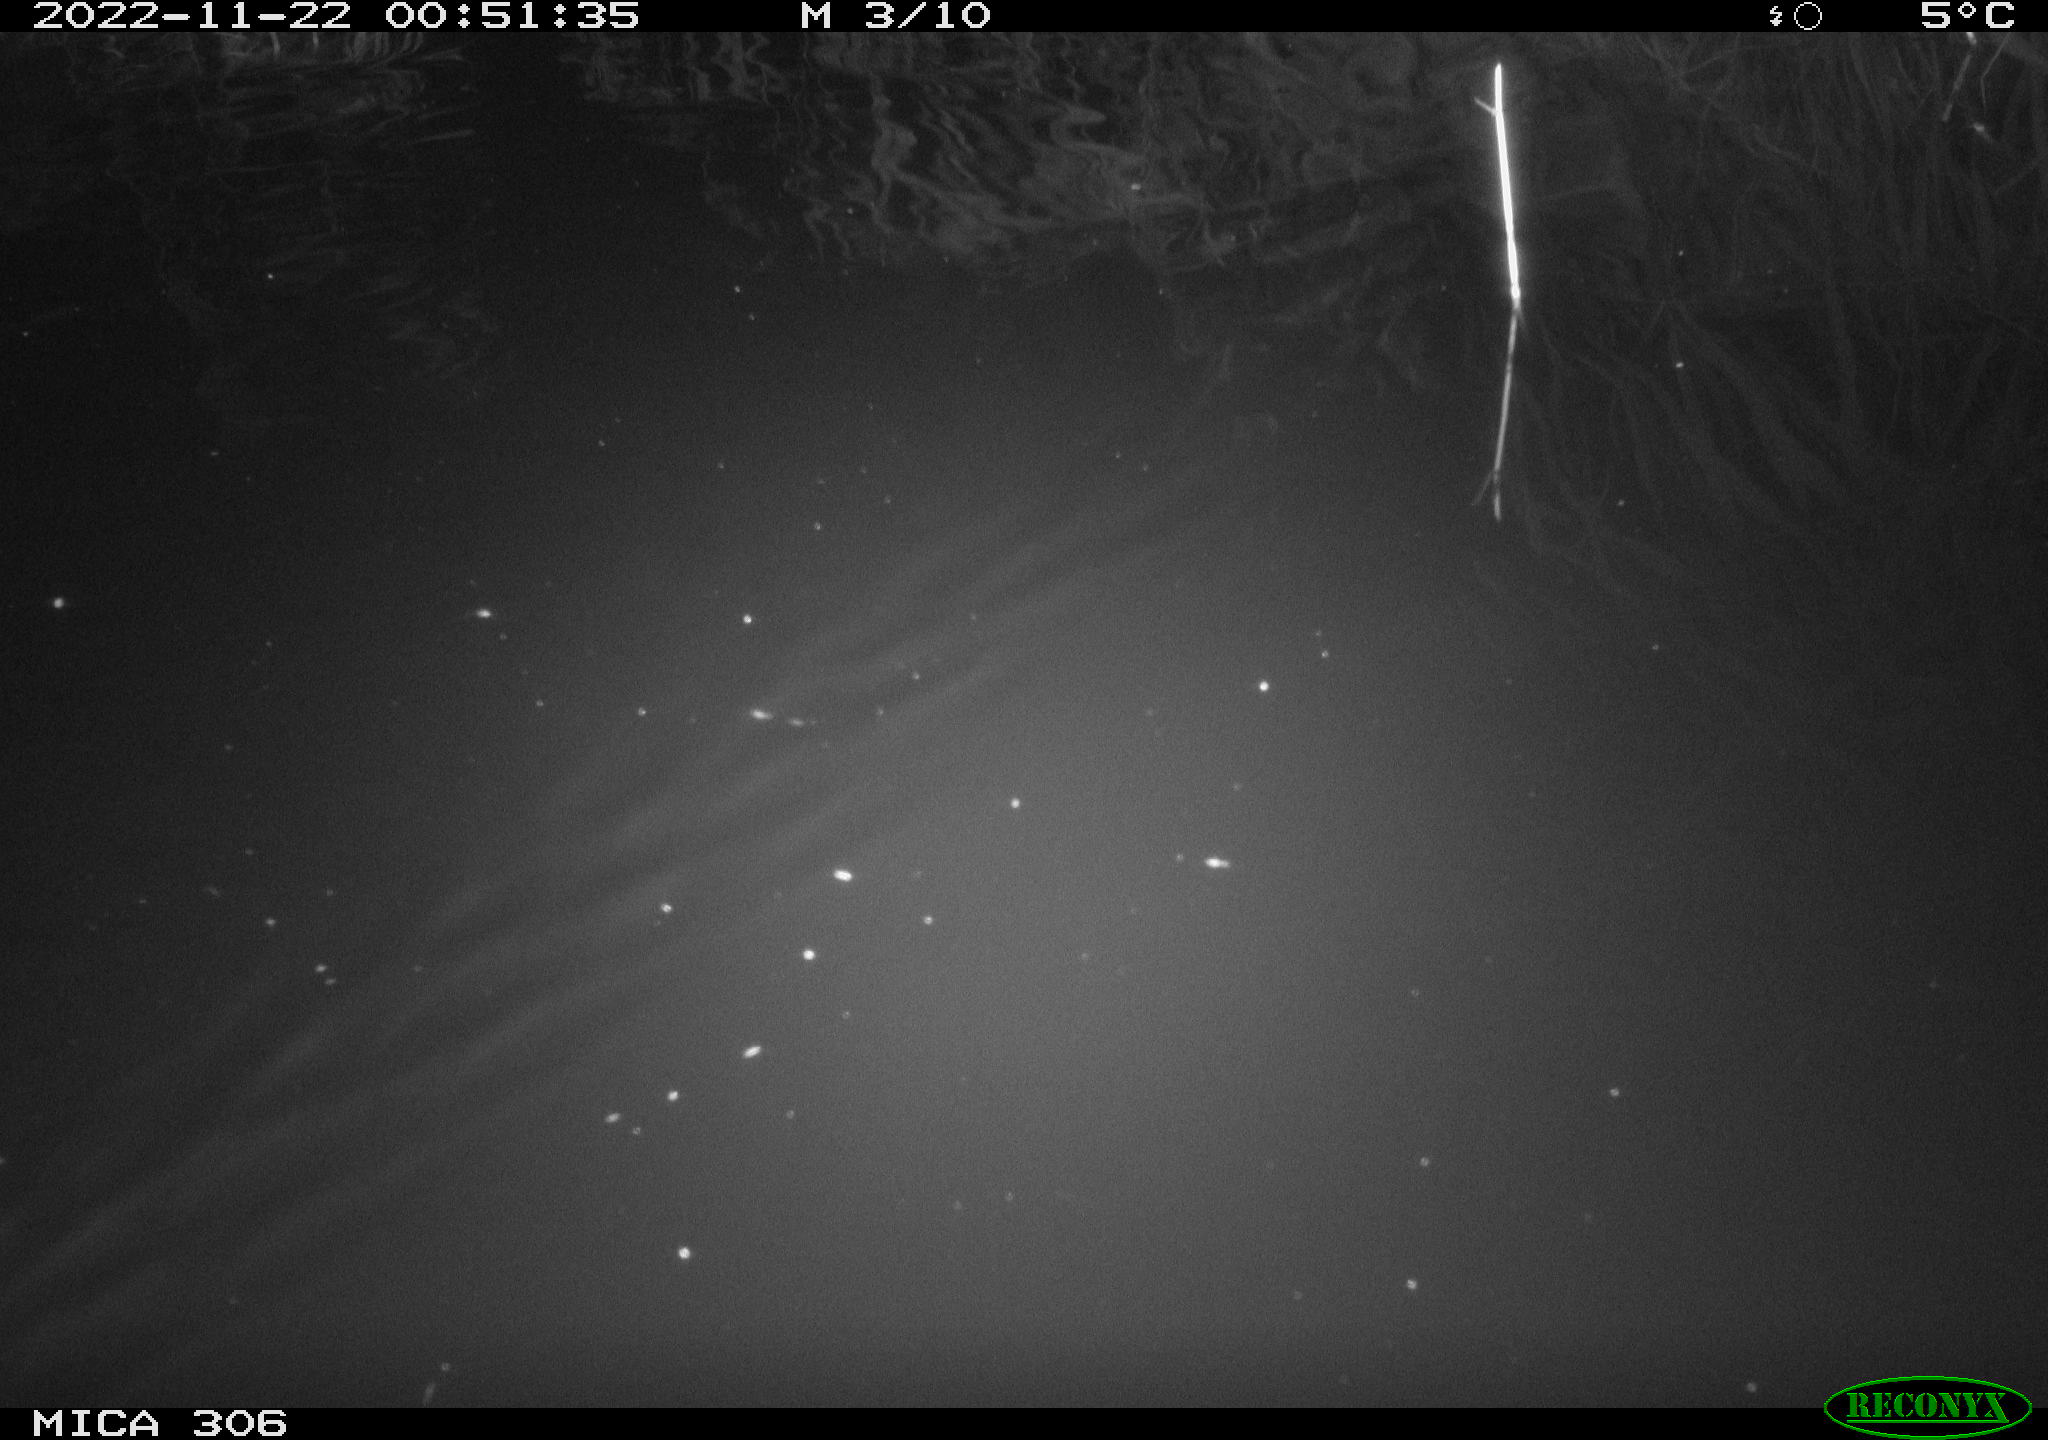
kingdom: Animalia
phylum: Chordata
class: Mammalia
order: Rodentia
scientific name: Rodentia
